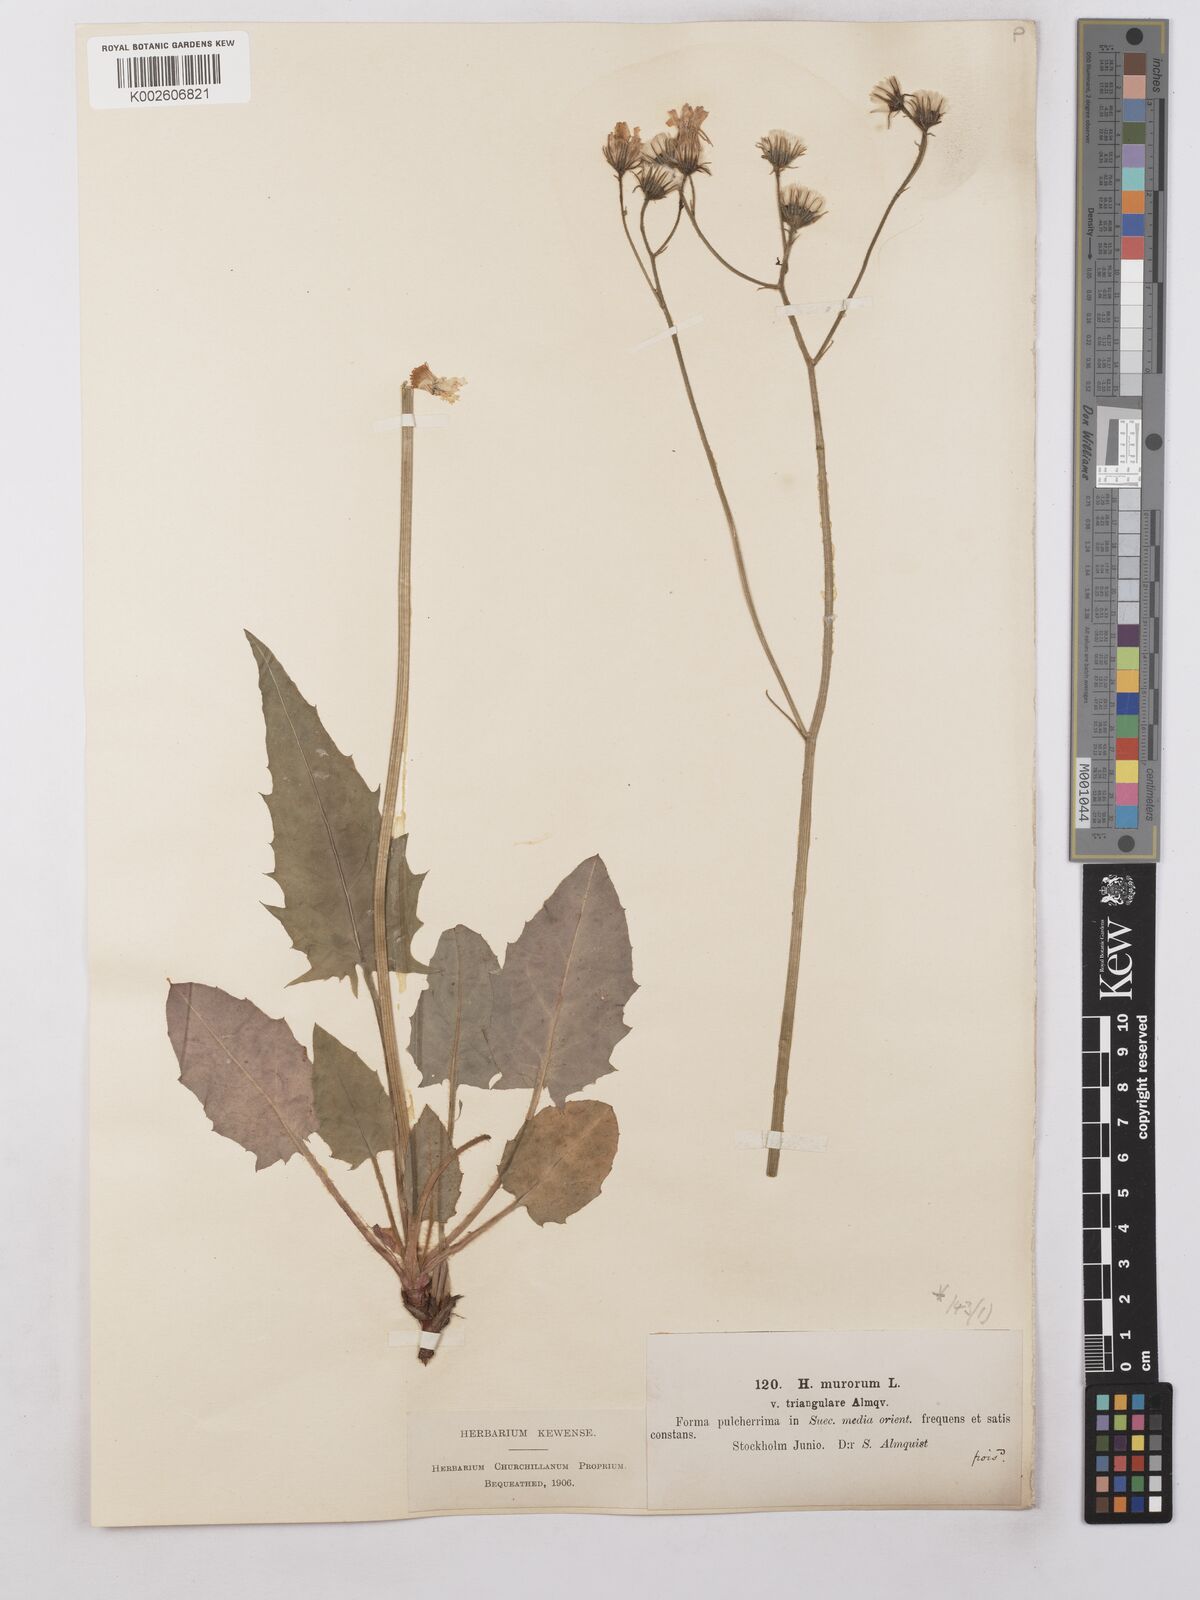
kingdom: Plantae
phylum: Tracheophyta
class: Magnoliopsida
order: Asterales
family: Asteraceae
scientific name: Asteraceae
